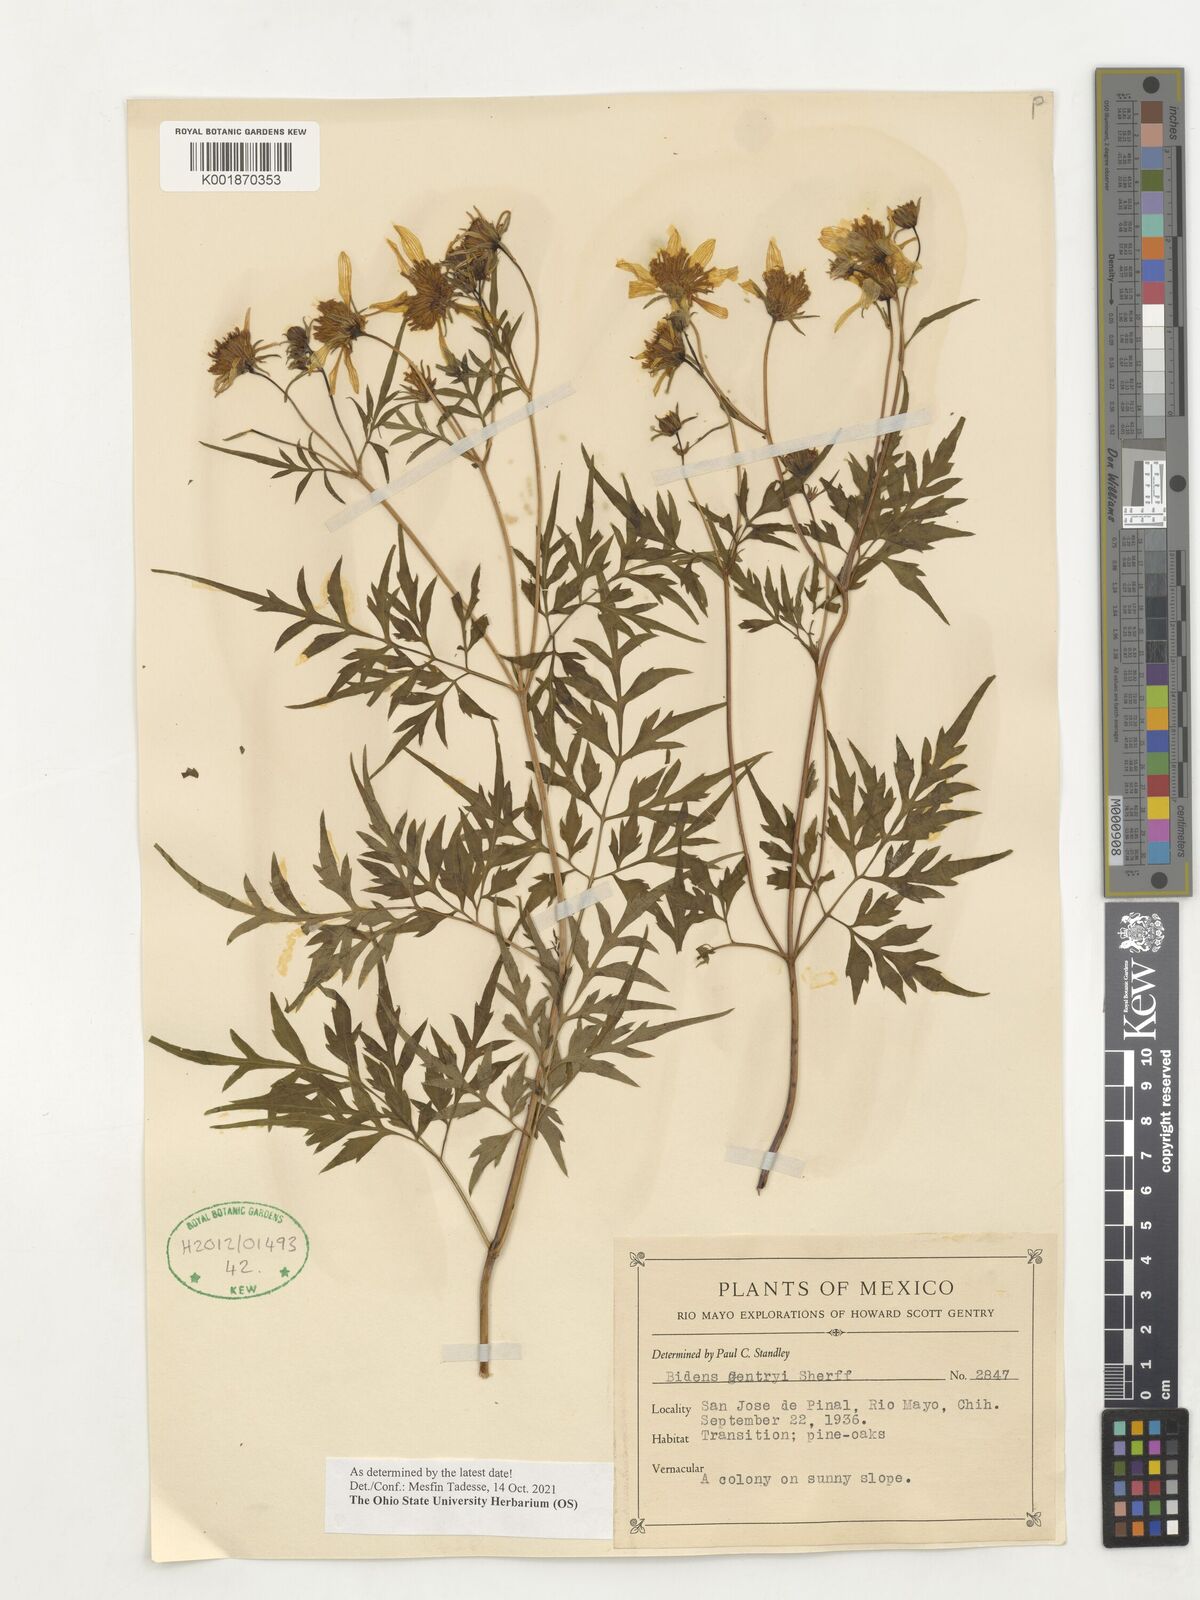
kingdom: Plantae
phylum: Tracheophyta
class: Magnoliopsida
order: Asterales
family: Asteraceae
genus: Bidens
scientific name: Bidens gentryi
